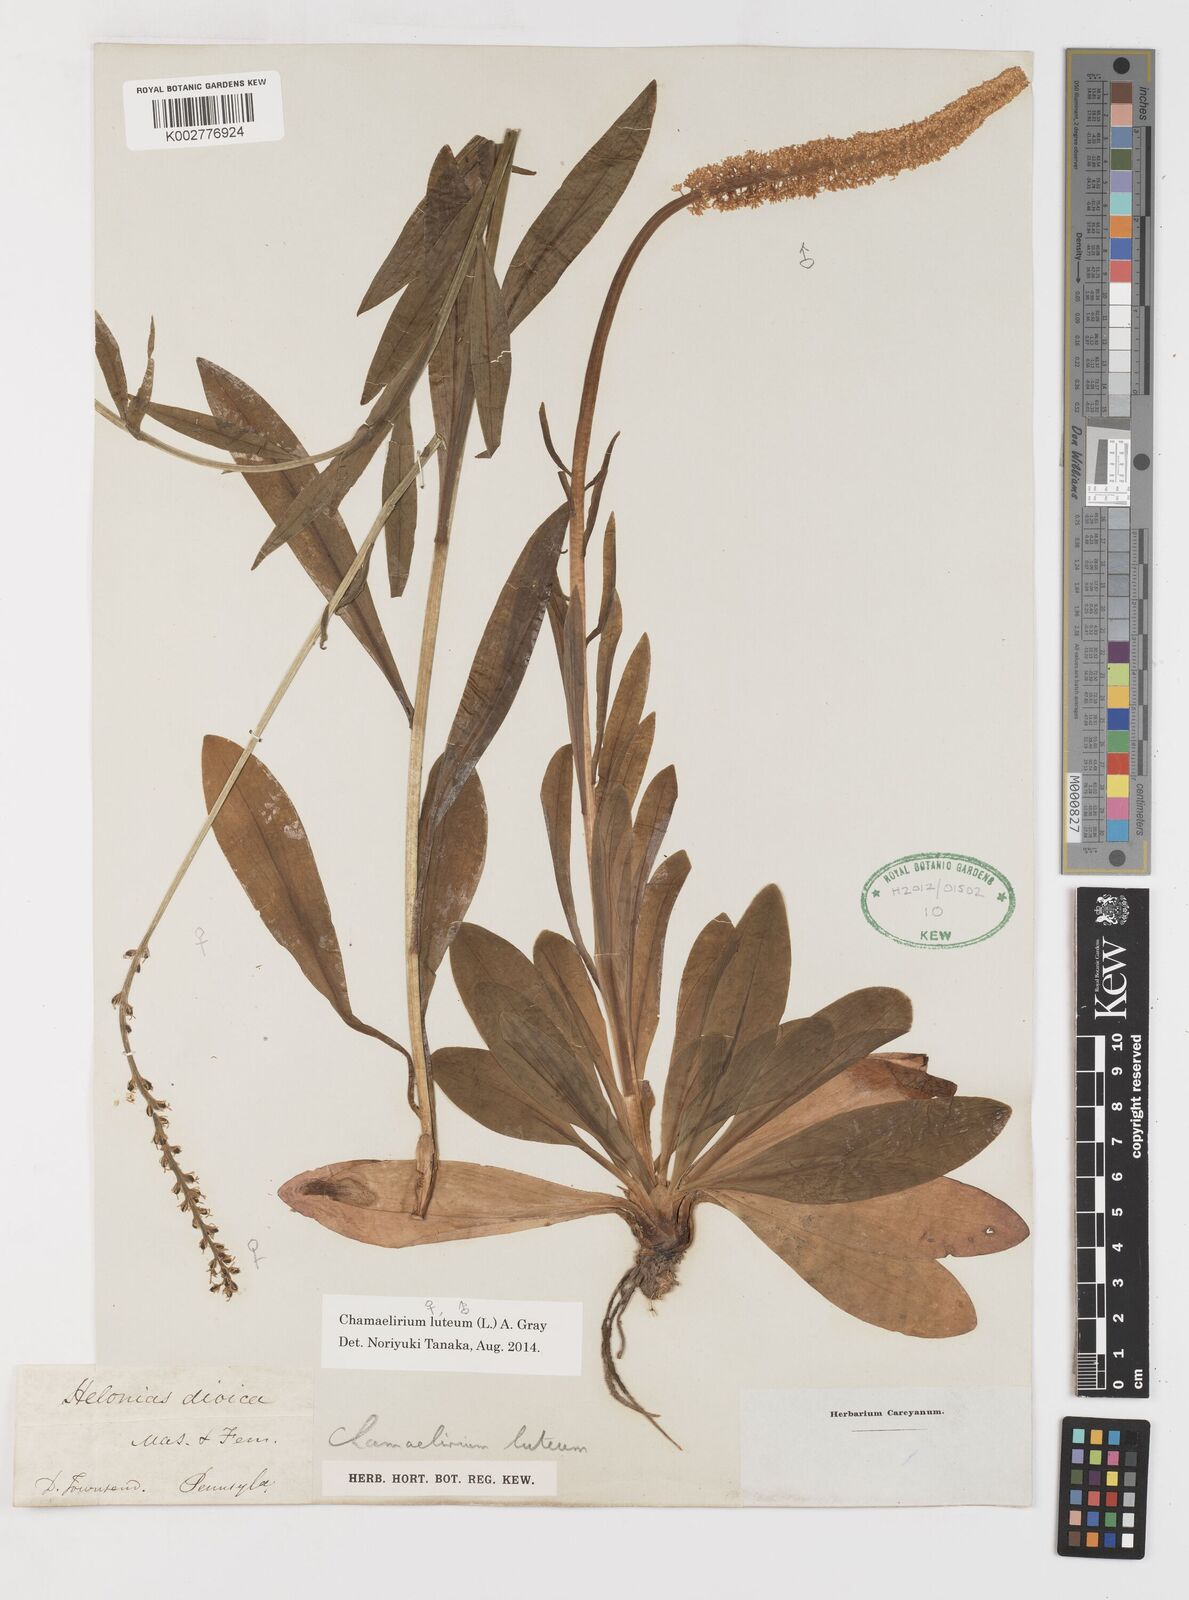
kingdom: Plantae
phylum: Tracheophyta
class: Liliopsida
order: Liliales
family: Melanthiaceae
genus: Chamaelirium
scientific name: Chamaelirium luteum
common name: Fairy-wand
